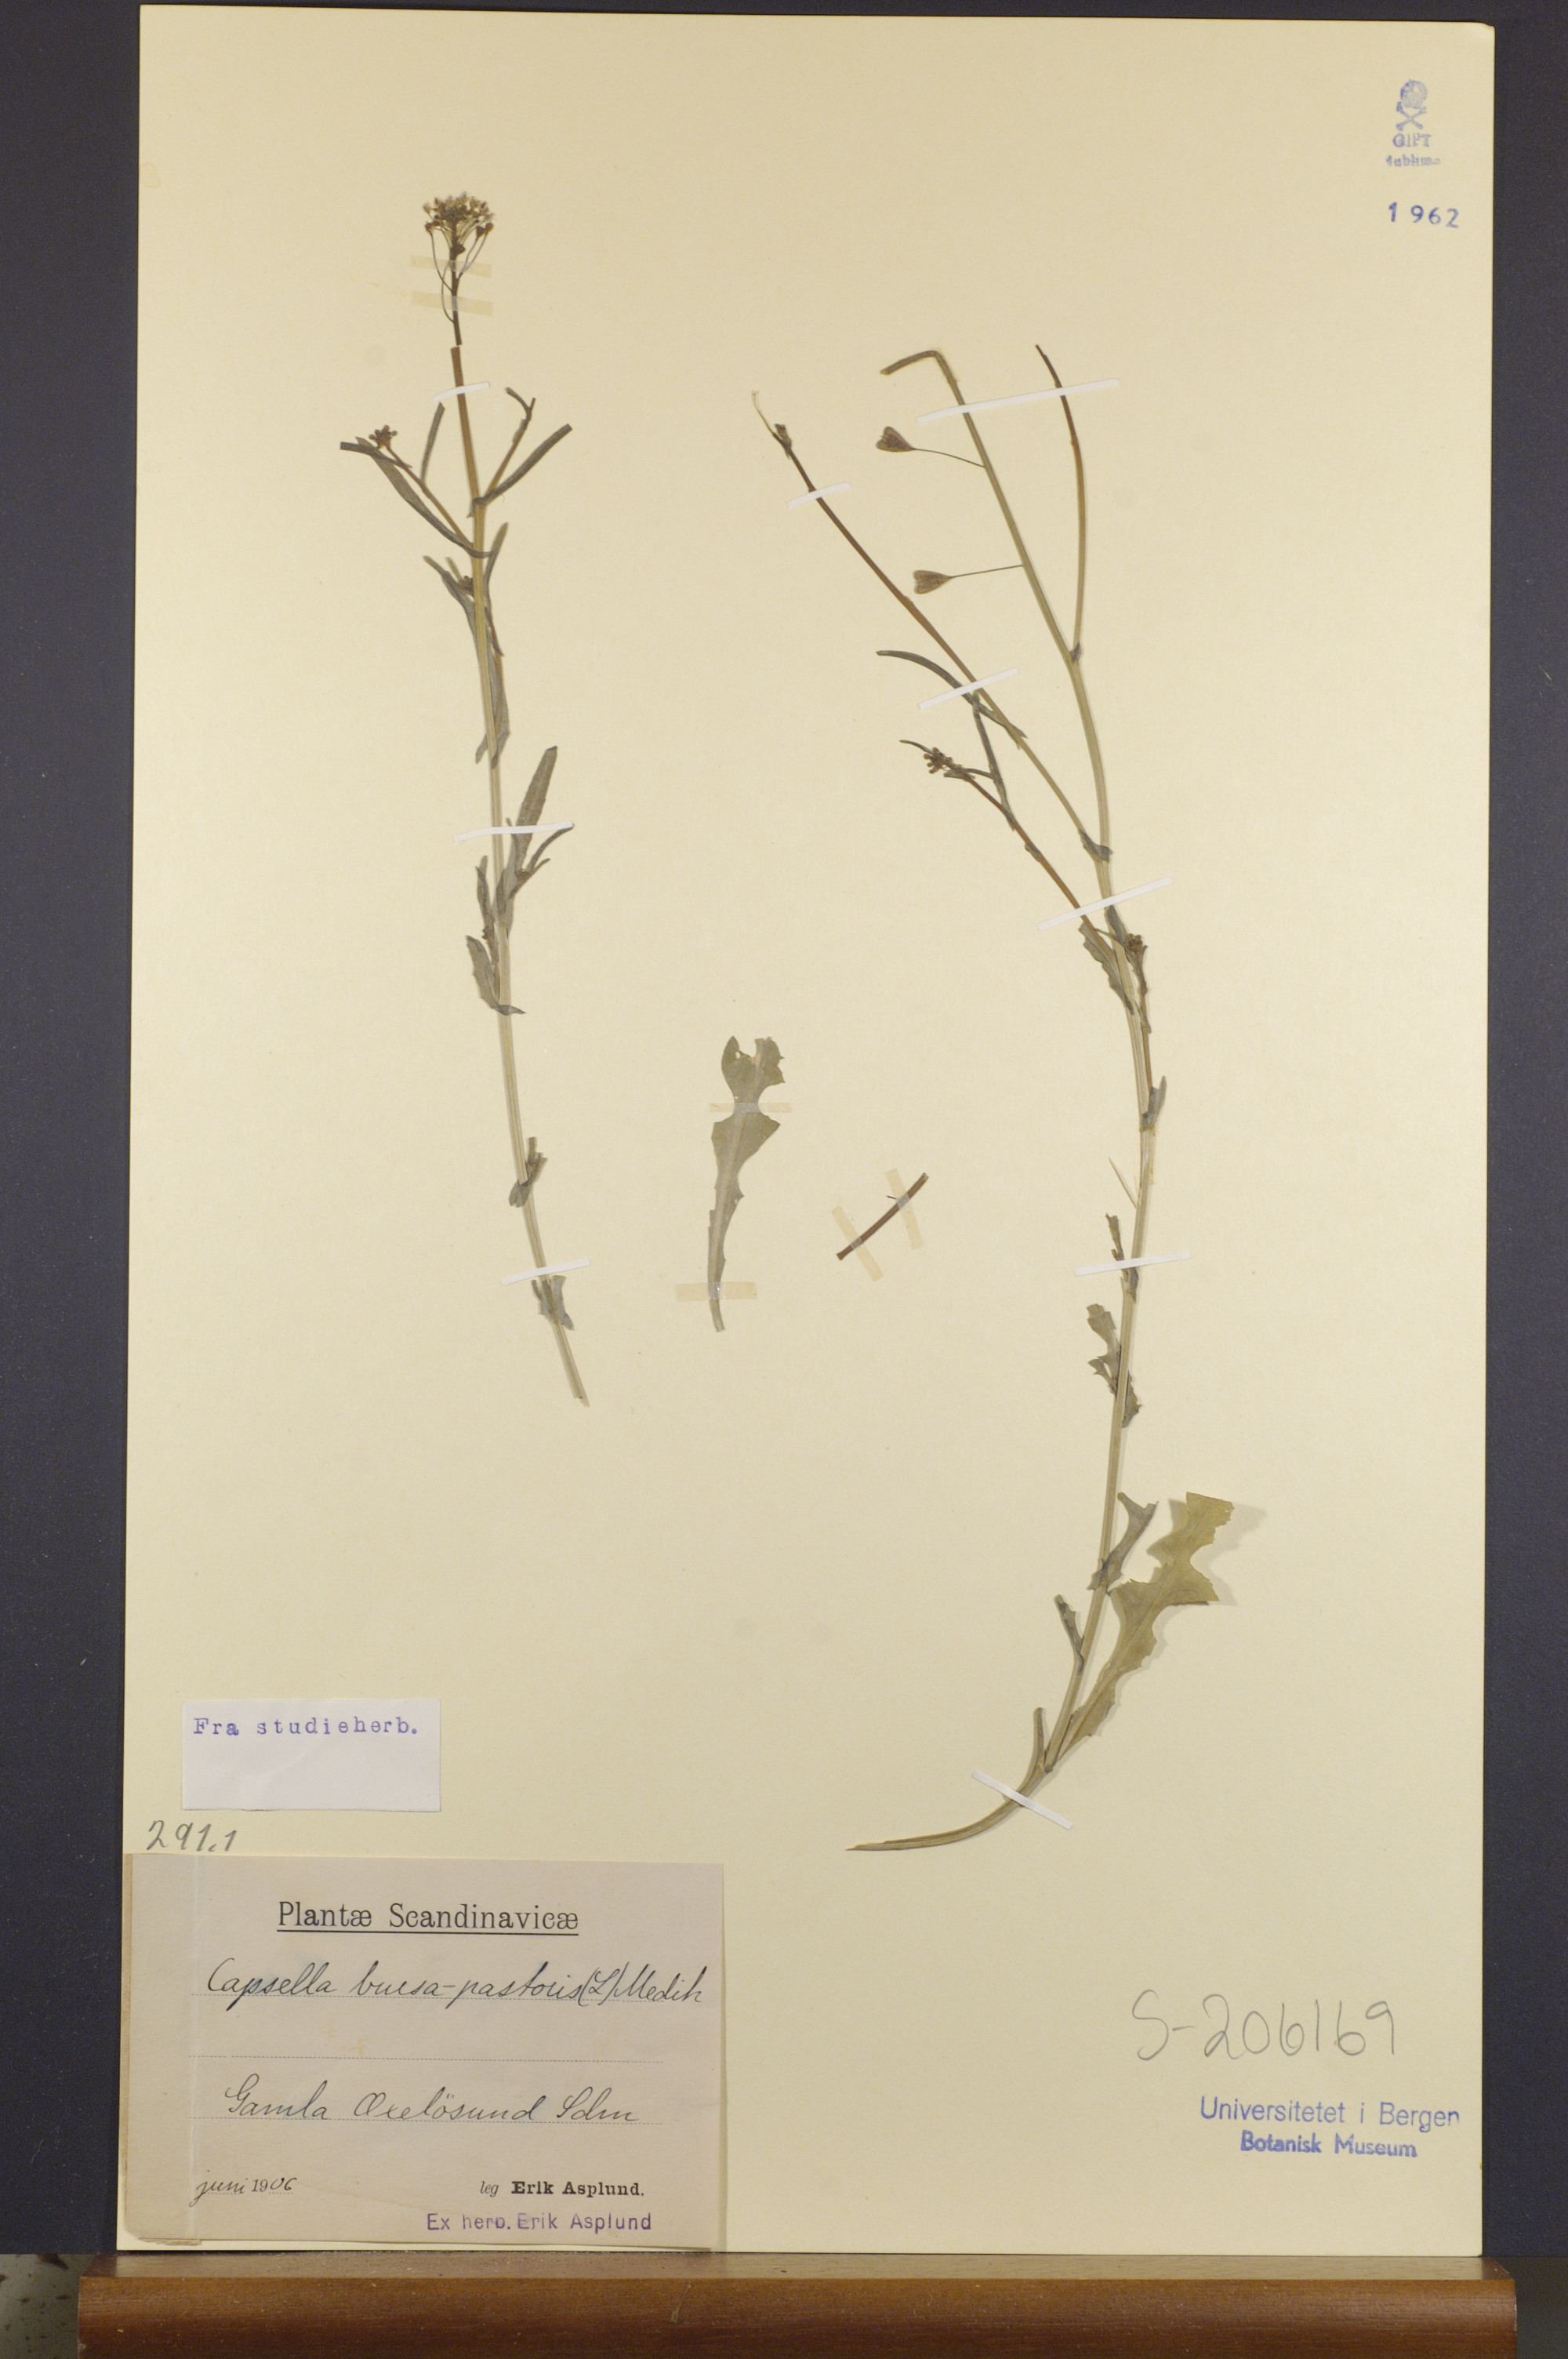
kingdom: Plantae
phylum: Tracheophyta
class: Magnoliopsida
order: Brassicales
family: Brassicaceae
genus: Capsella
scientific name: Capsella bursa-pastoris
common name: Shepherd's purse
